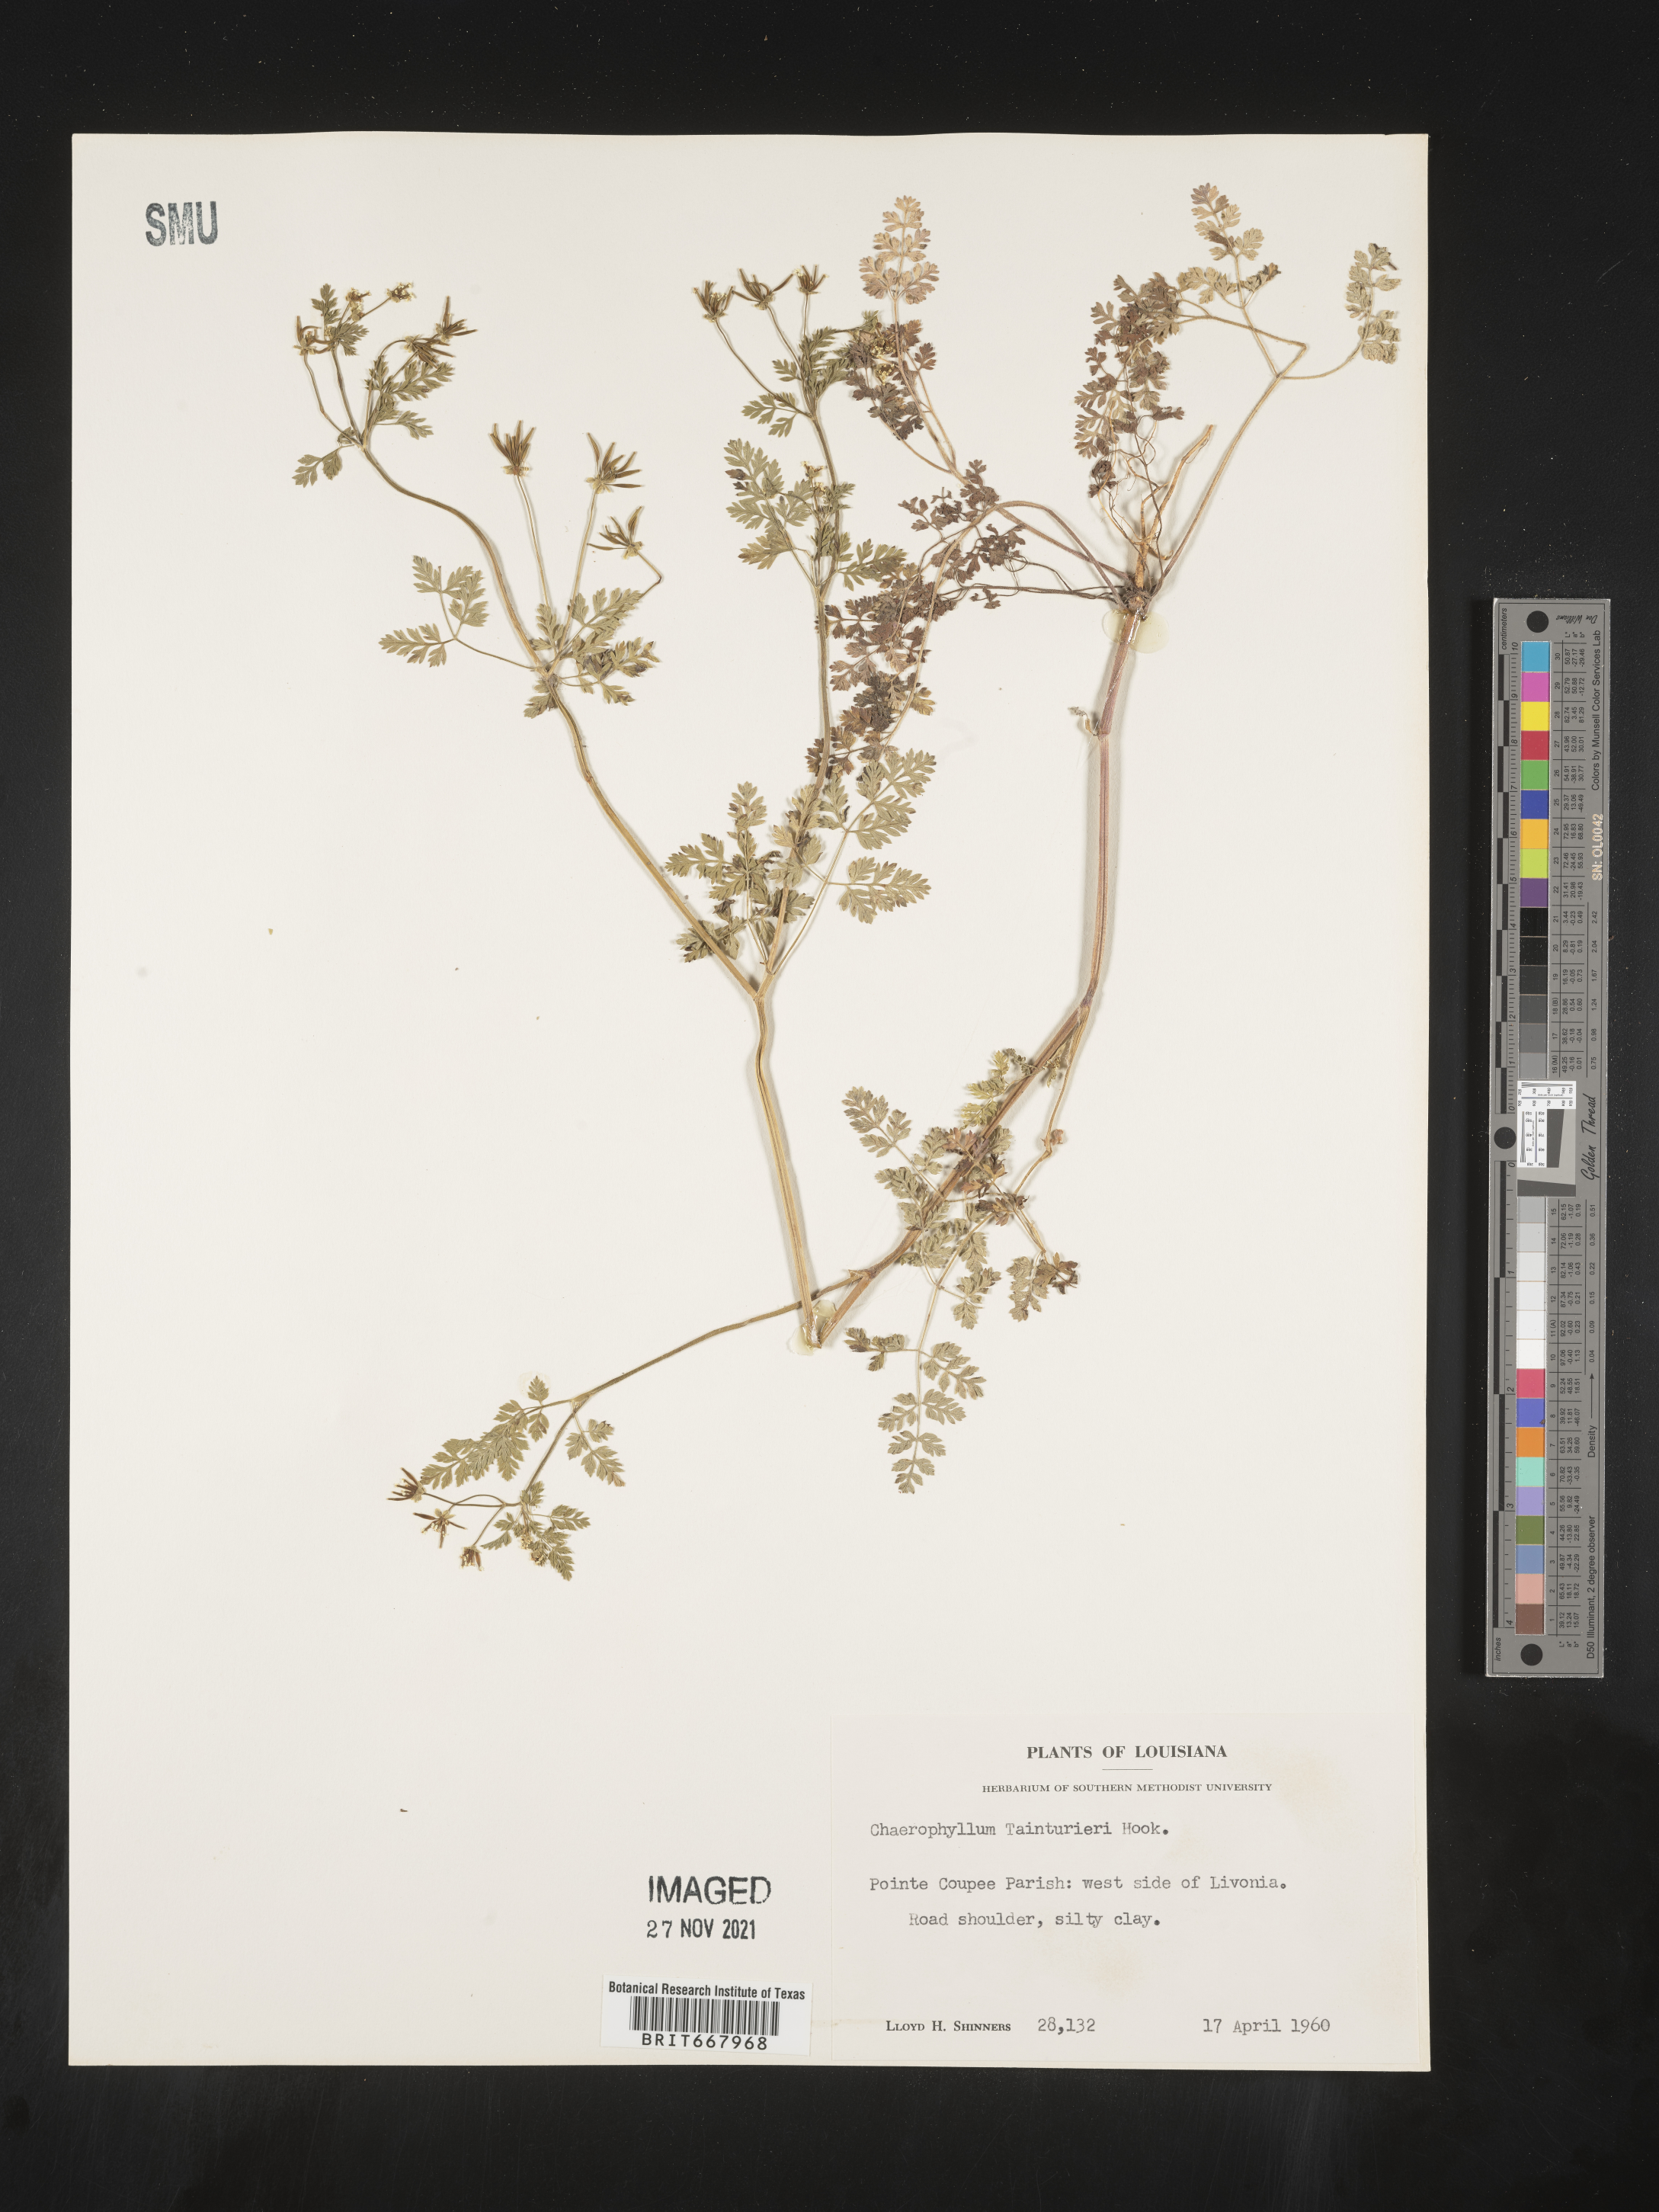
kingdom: Plantae
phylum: Tracheophyta
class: Magnoliopsida
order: Apiales
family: Apiaceae
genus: Chaerophyllum
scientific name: Chaerophyllum tainturieri
